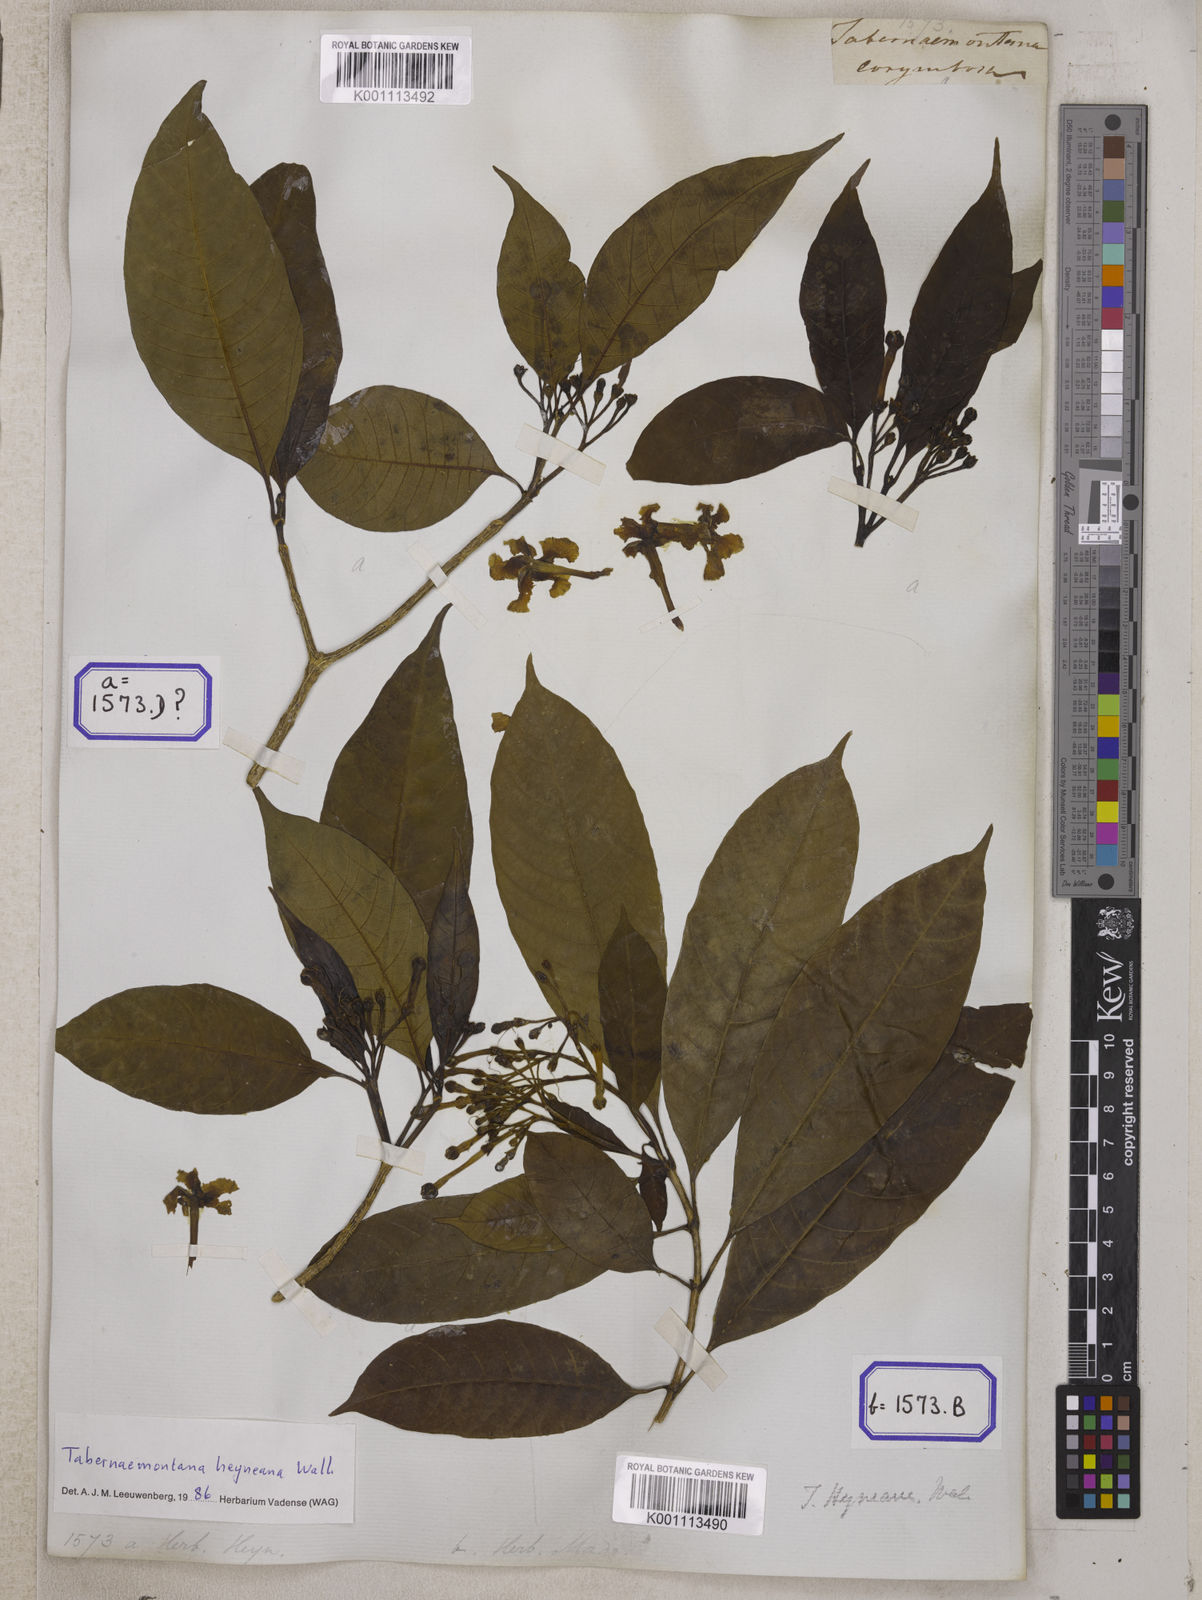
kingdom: Plantae
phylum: Tracheophyta
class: Magnoliopsida
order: Gentianales
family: Apocynaceae
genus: Tabernaemontana
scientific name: Tabernaemontana alternifolia
